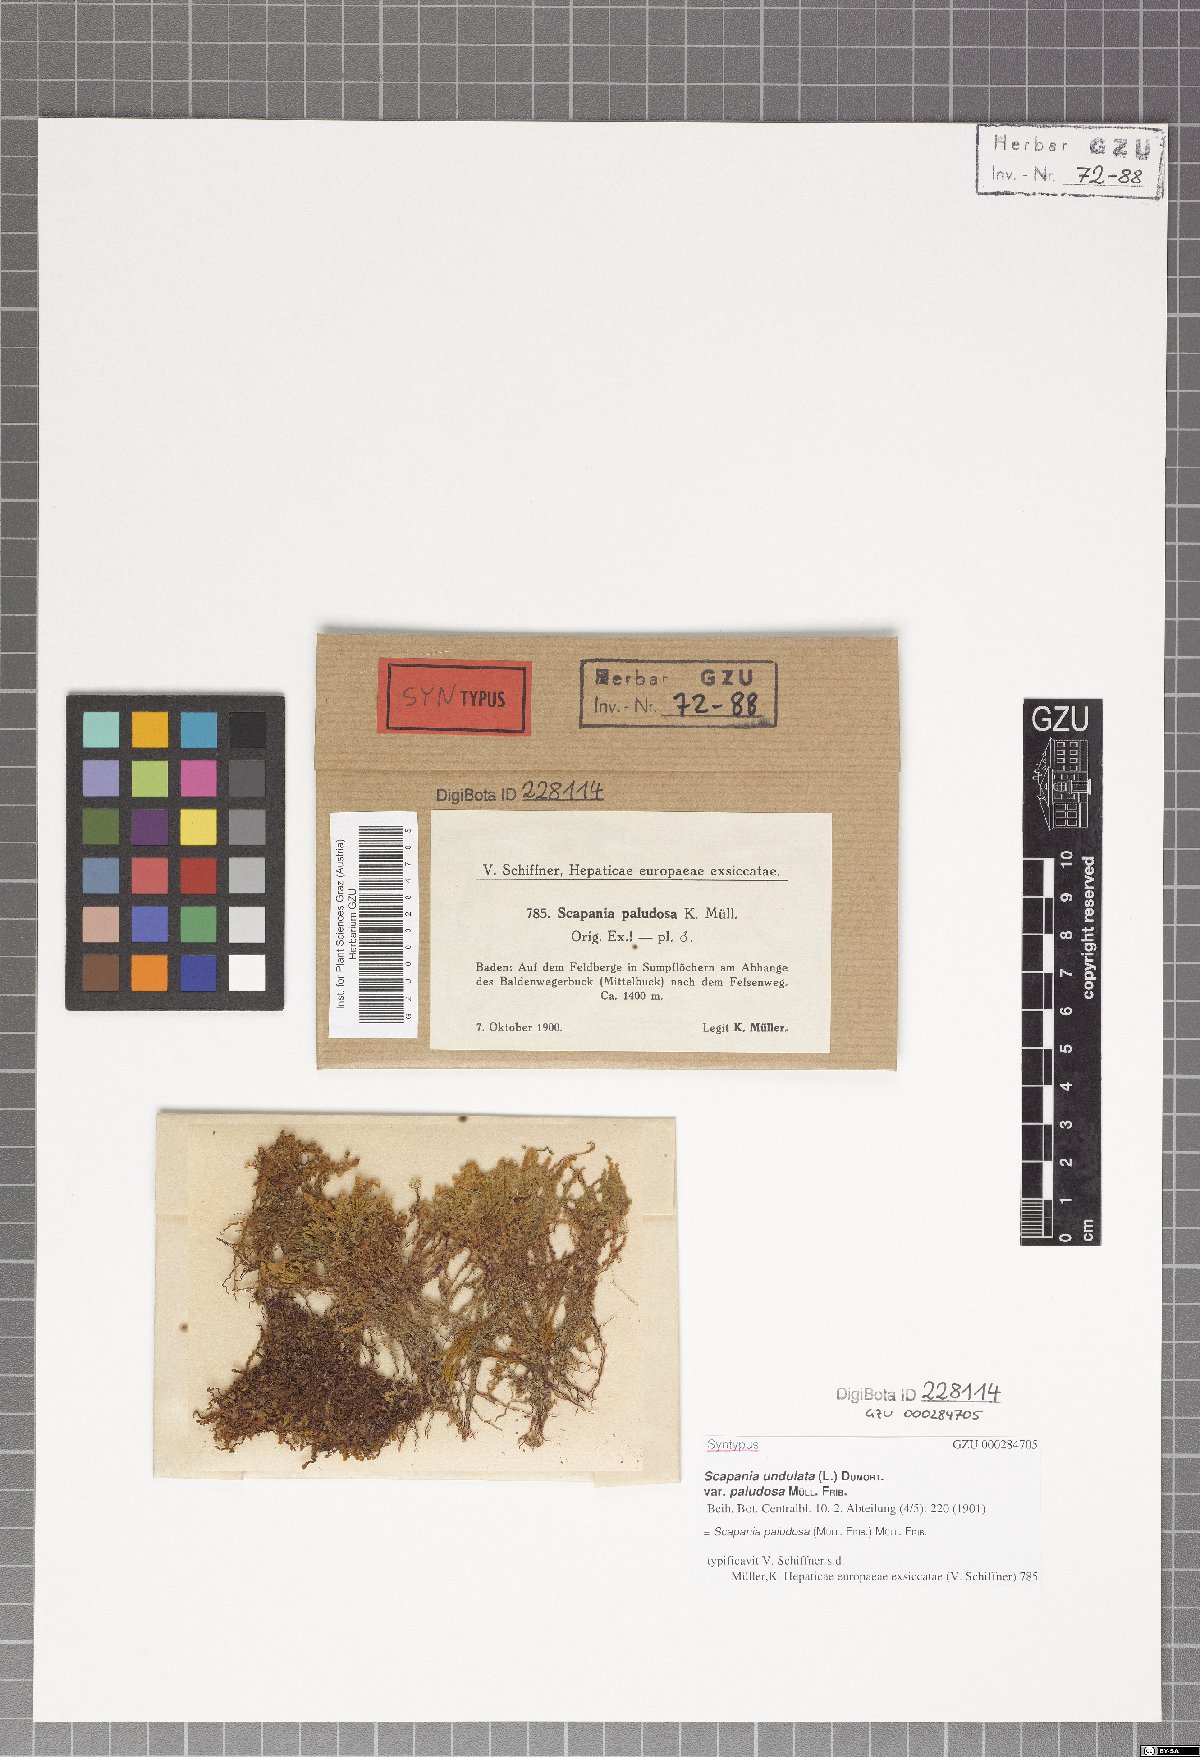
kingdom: Plantae
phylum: Marchantiophyta
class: Jungermanniopsida
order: Jungermanniales
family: Scapaniaceae
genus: Scapania
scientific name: Scapania paludosa
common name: Floppy earwort
